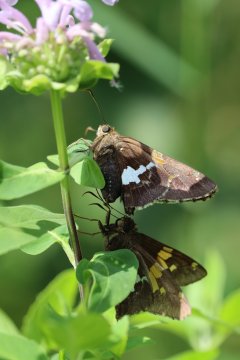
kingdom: Animalia
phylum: Arthropoda
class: Insecta
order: Lepidoptera
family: Hesperiidae
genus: Epargyreus
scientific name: Epargyreus clarus
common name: Silver-spotted Skipper
